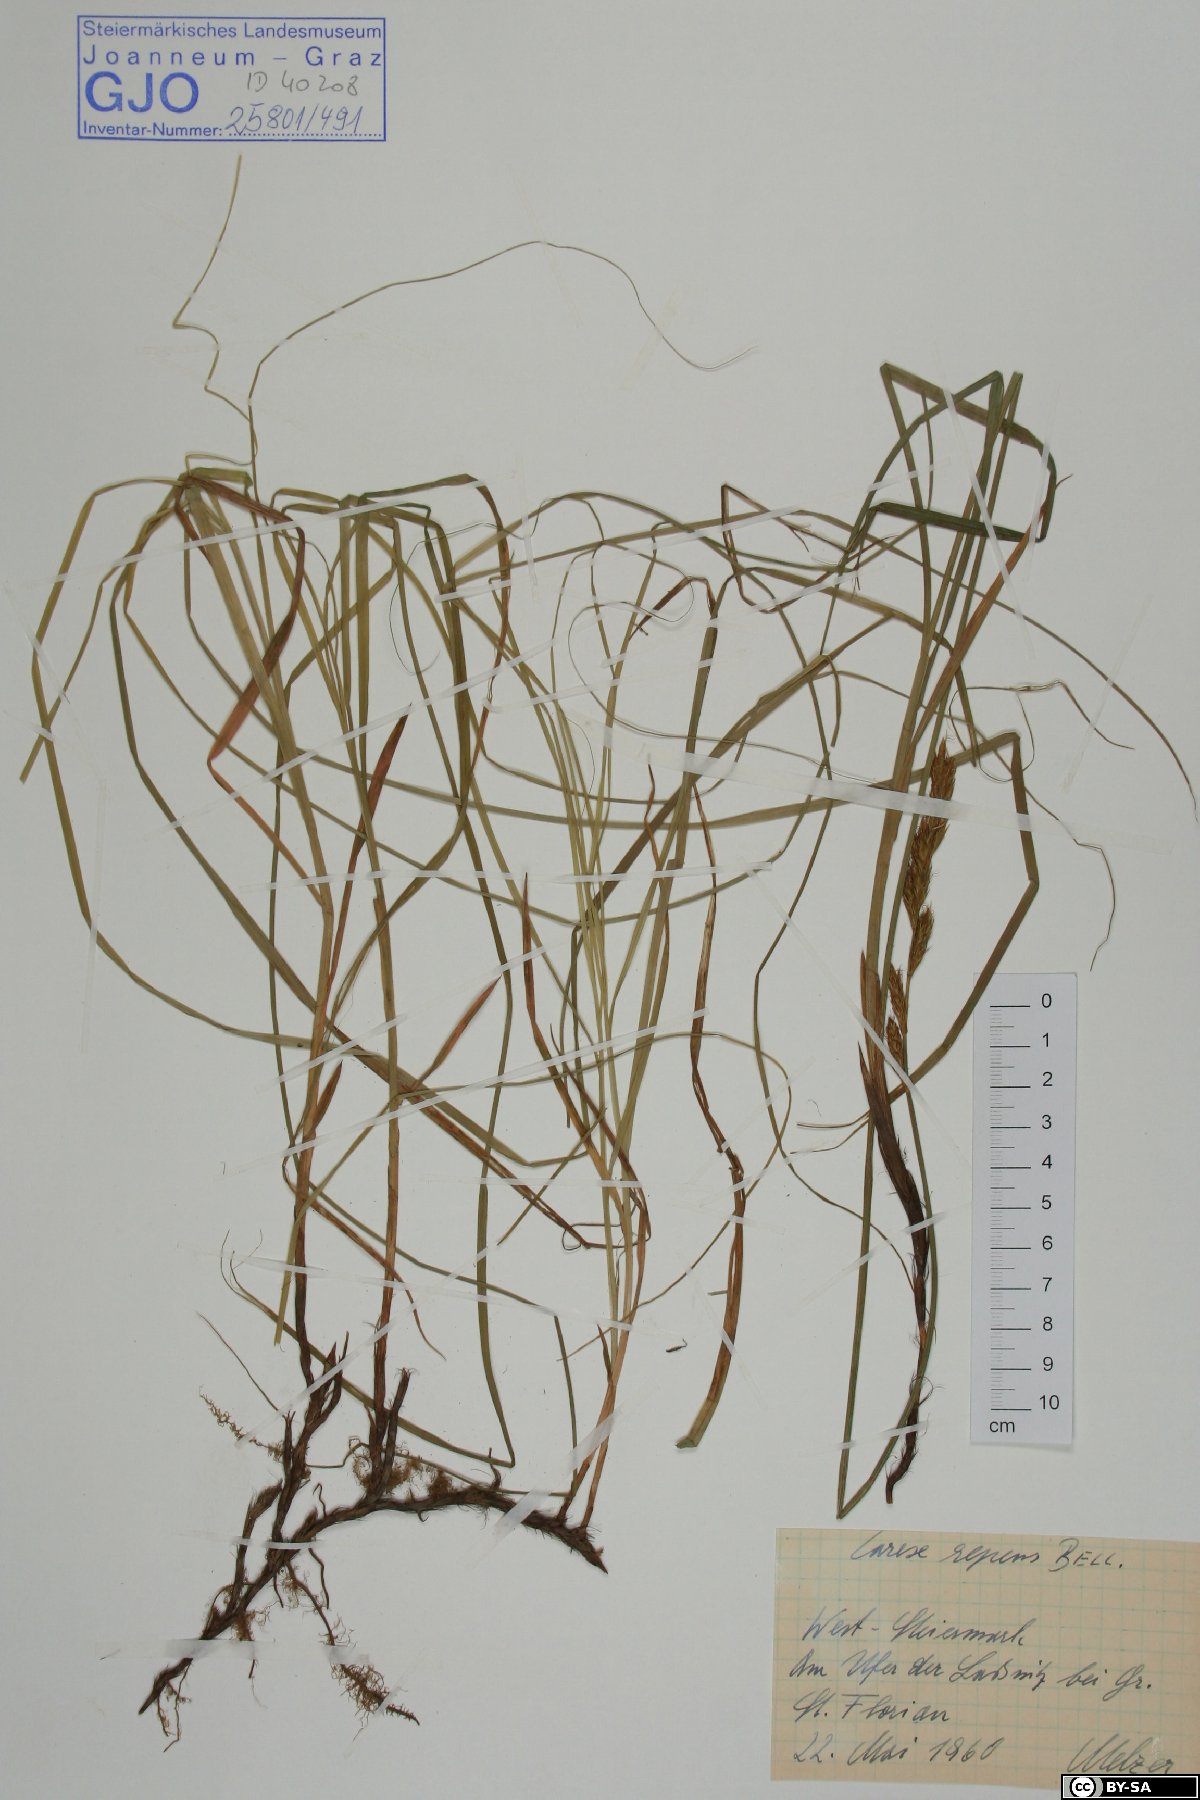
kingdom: Plantae
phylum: Tracheophyta
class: Liliopsida
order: Poales
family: Cyperaceae
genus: Carex
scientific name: Carex repens
